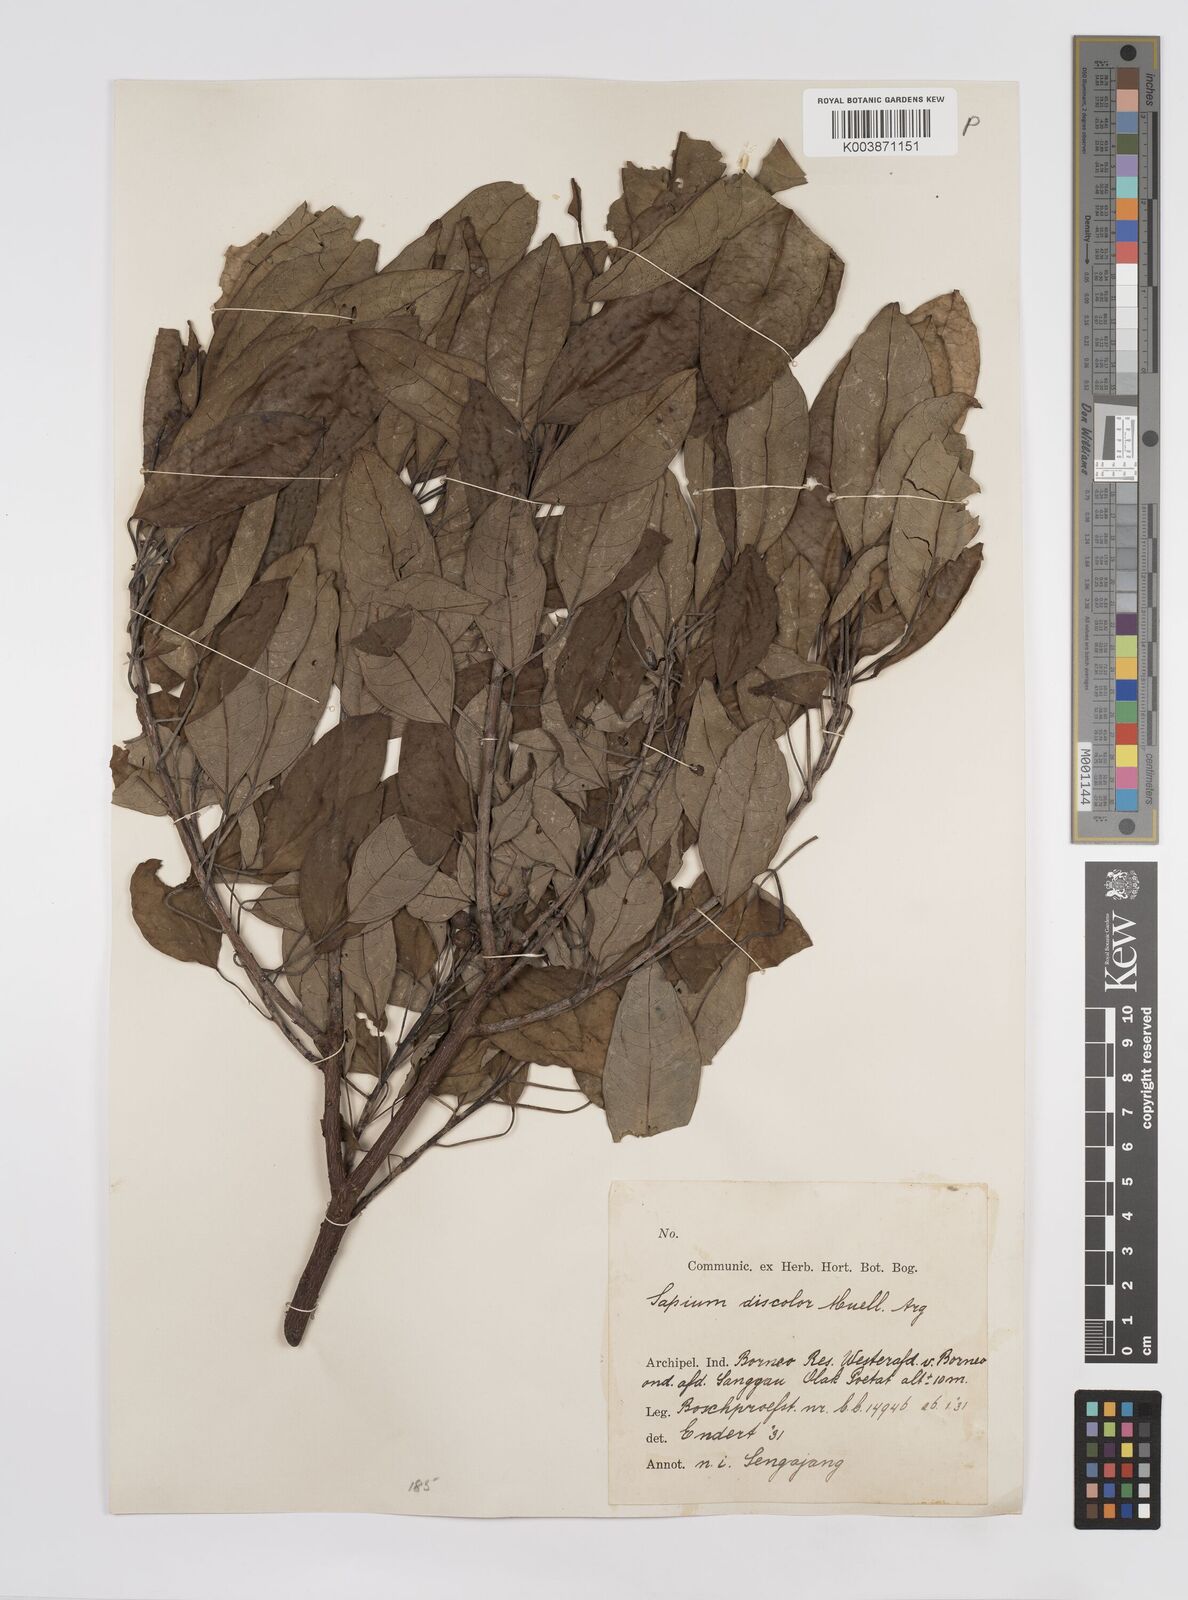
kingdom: Plantae
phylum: Tracheophyta
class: Magnoliopsida
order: Malpighiales
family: Euphorbiaceae
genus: Triadica
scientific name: Triadica cochinchinensis
